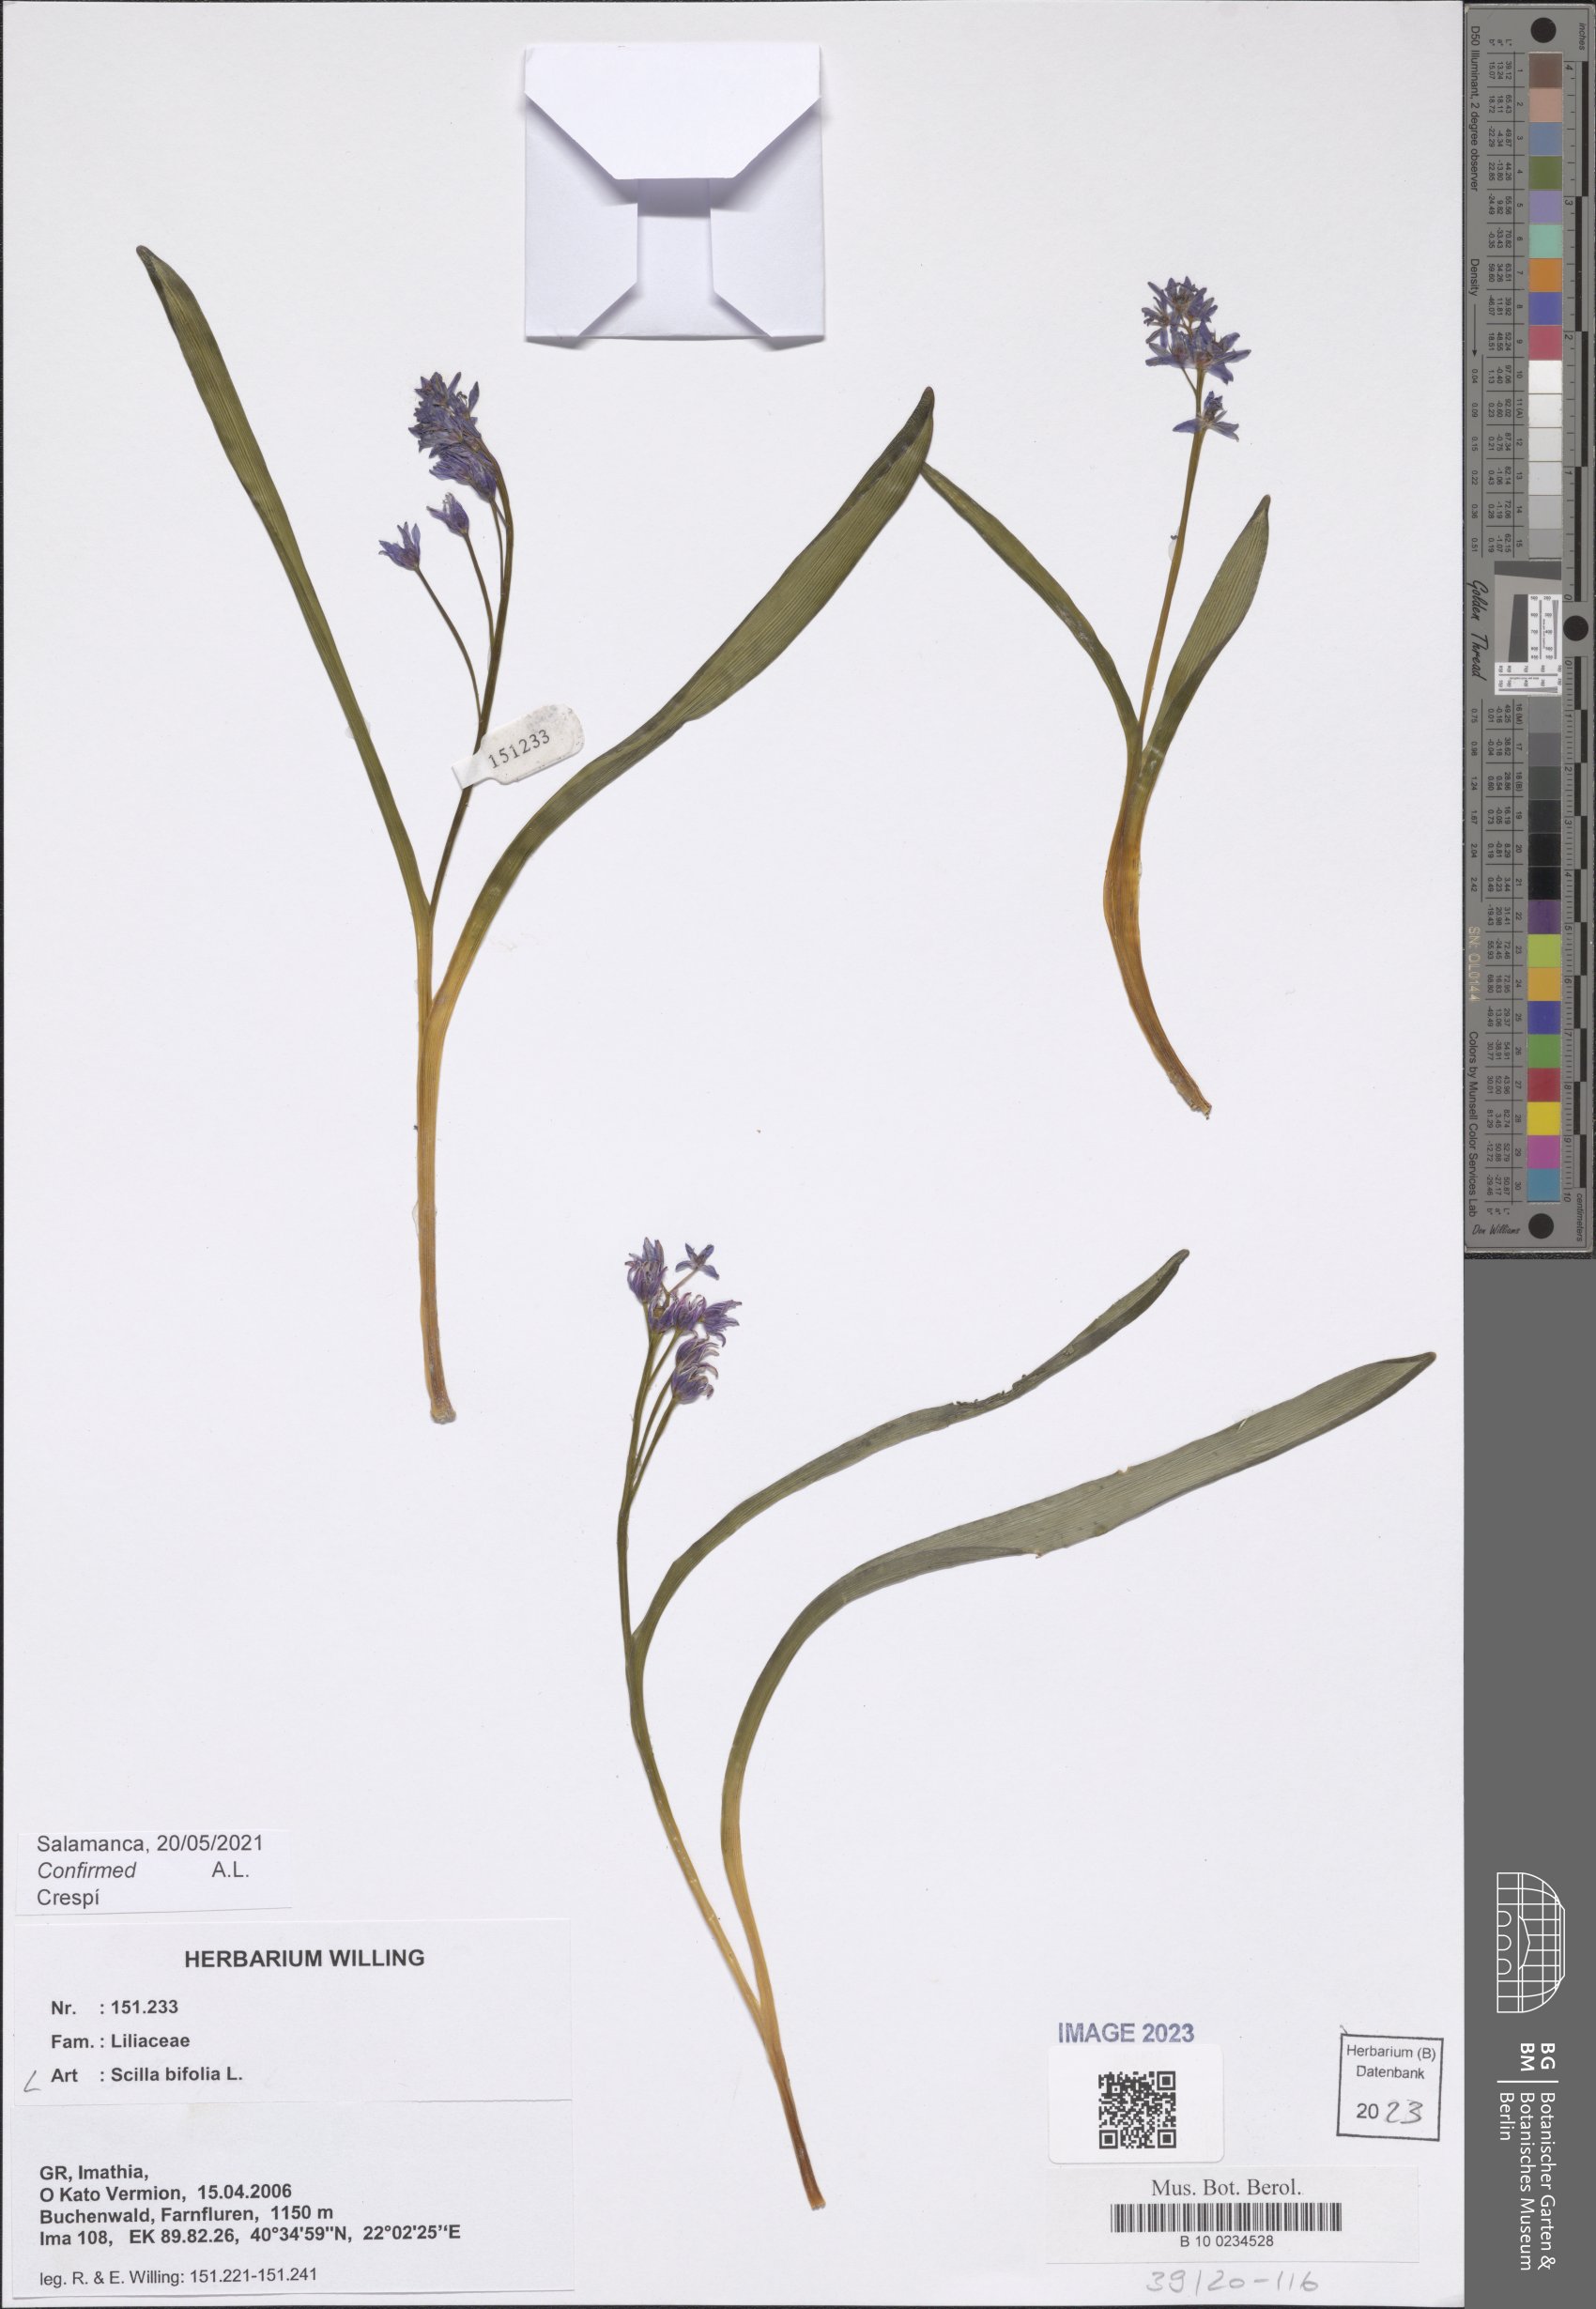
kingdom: Plantae
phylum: Tracheophyta
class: Liliopsida
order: Asparagales
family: Asparagaceae
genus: Scilla
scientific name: Scilla bifolia
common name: Alpine squill
